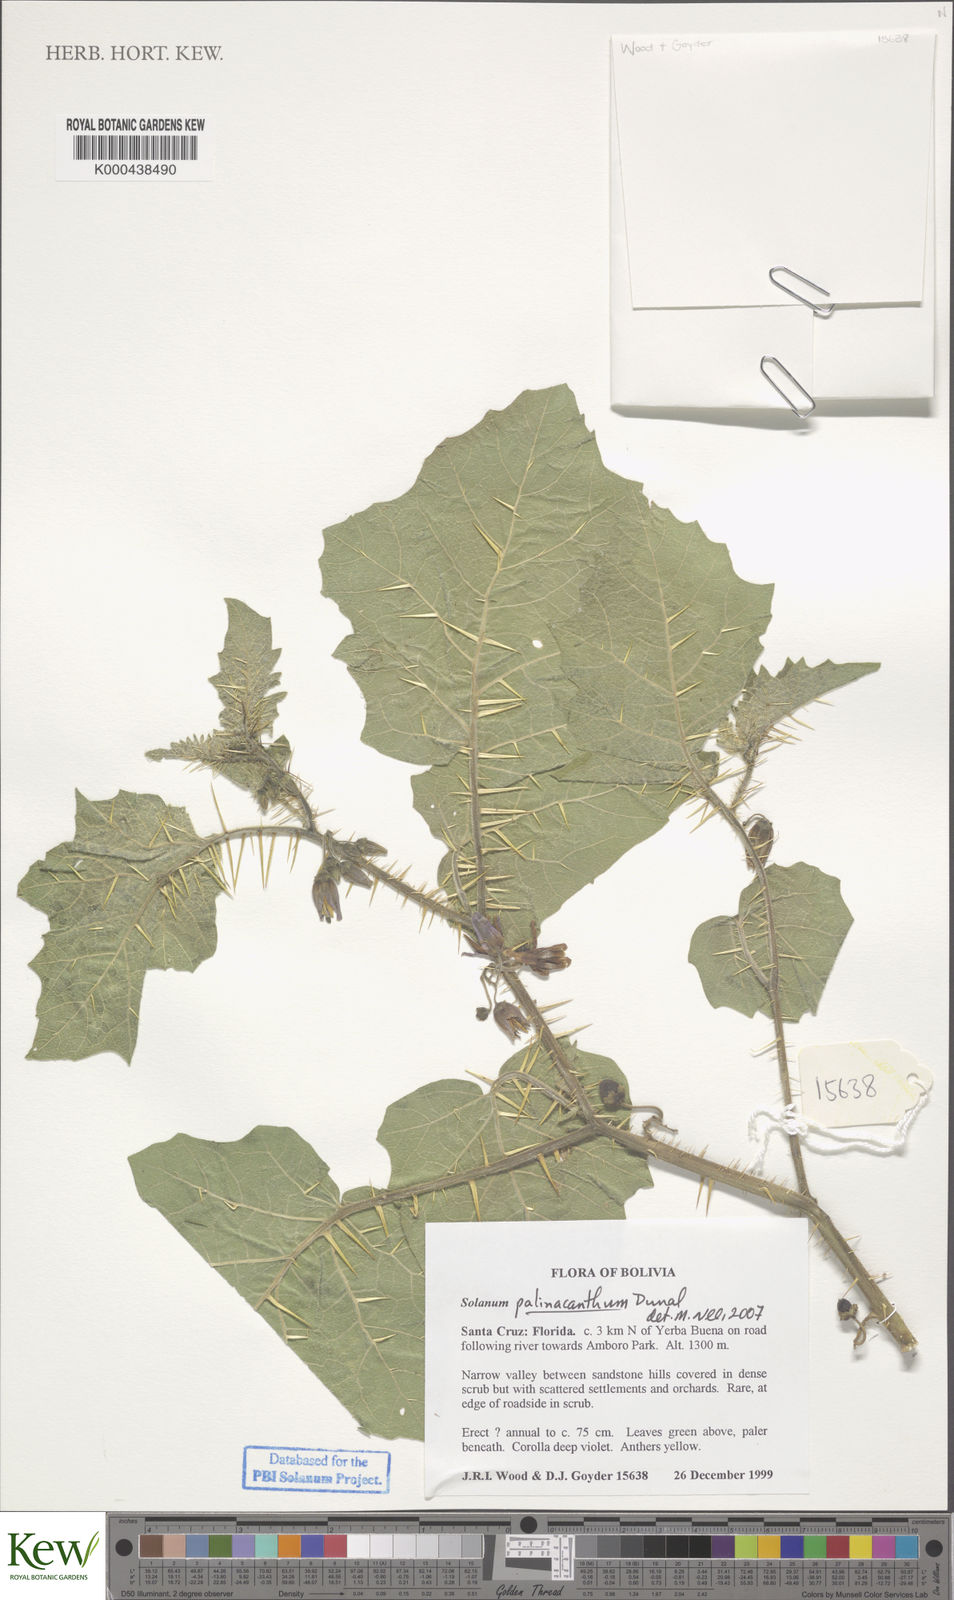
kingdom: Plantae
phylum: Tracheophyta
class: Magnoliopsida
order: Solanales
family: Solanaceae
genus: Solanum
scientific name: Solanum palinacanthum
